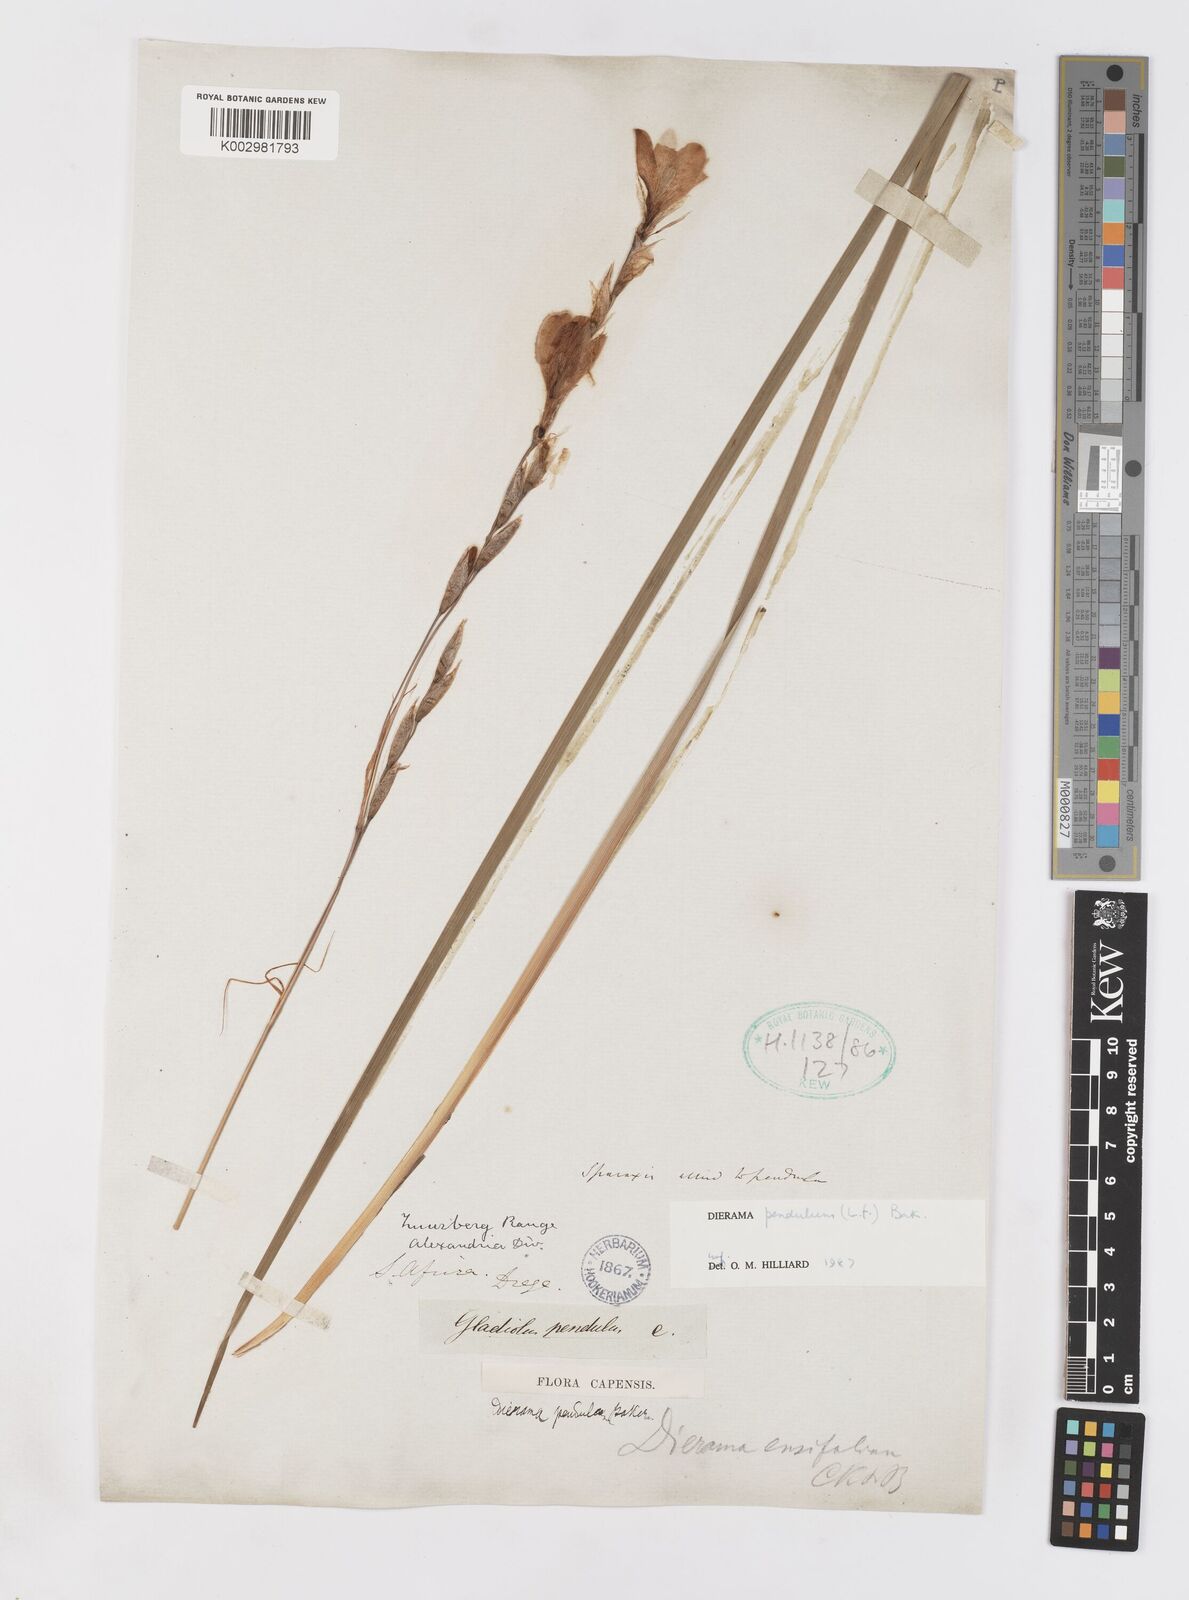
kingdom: Plantae
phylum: Tracheophyta
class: Liliopsida
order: Asparagales
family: Iridaceae
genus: Dierama
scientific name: Dierama pendulum
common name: Grassy-bell
